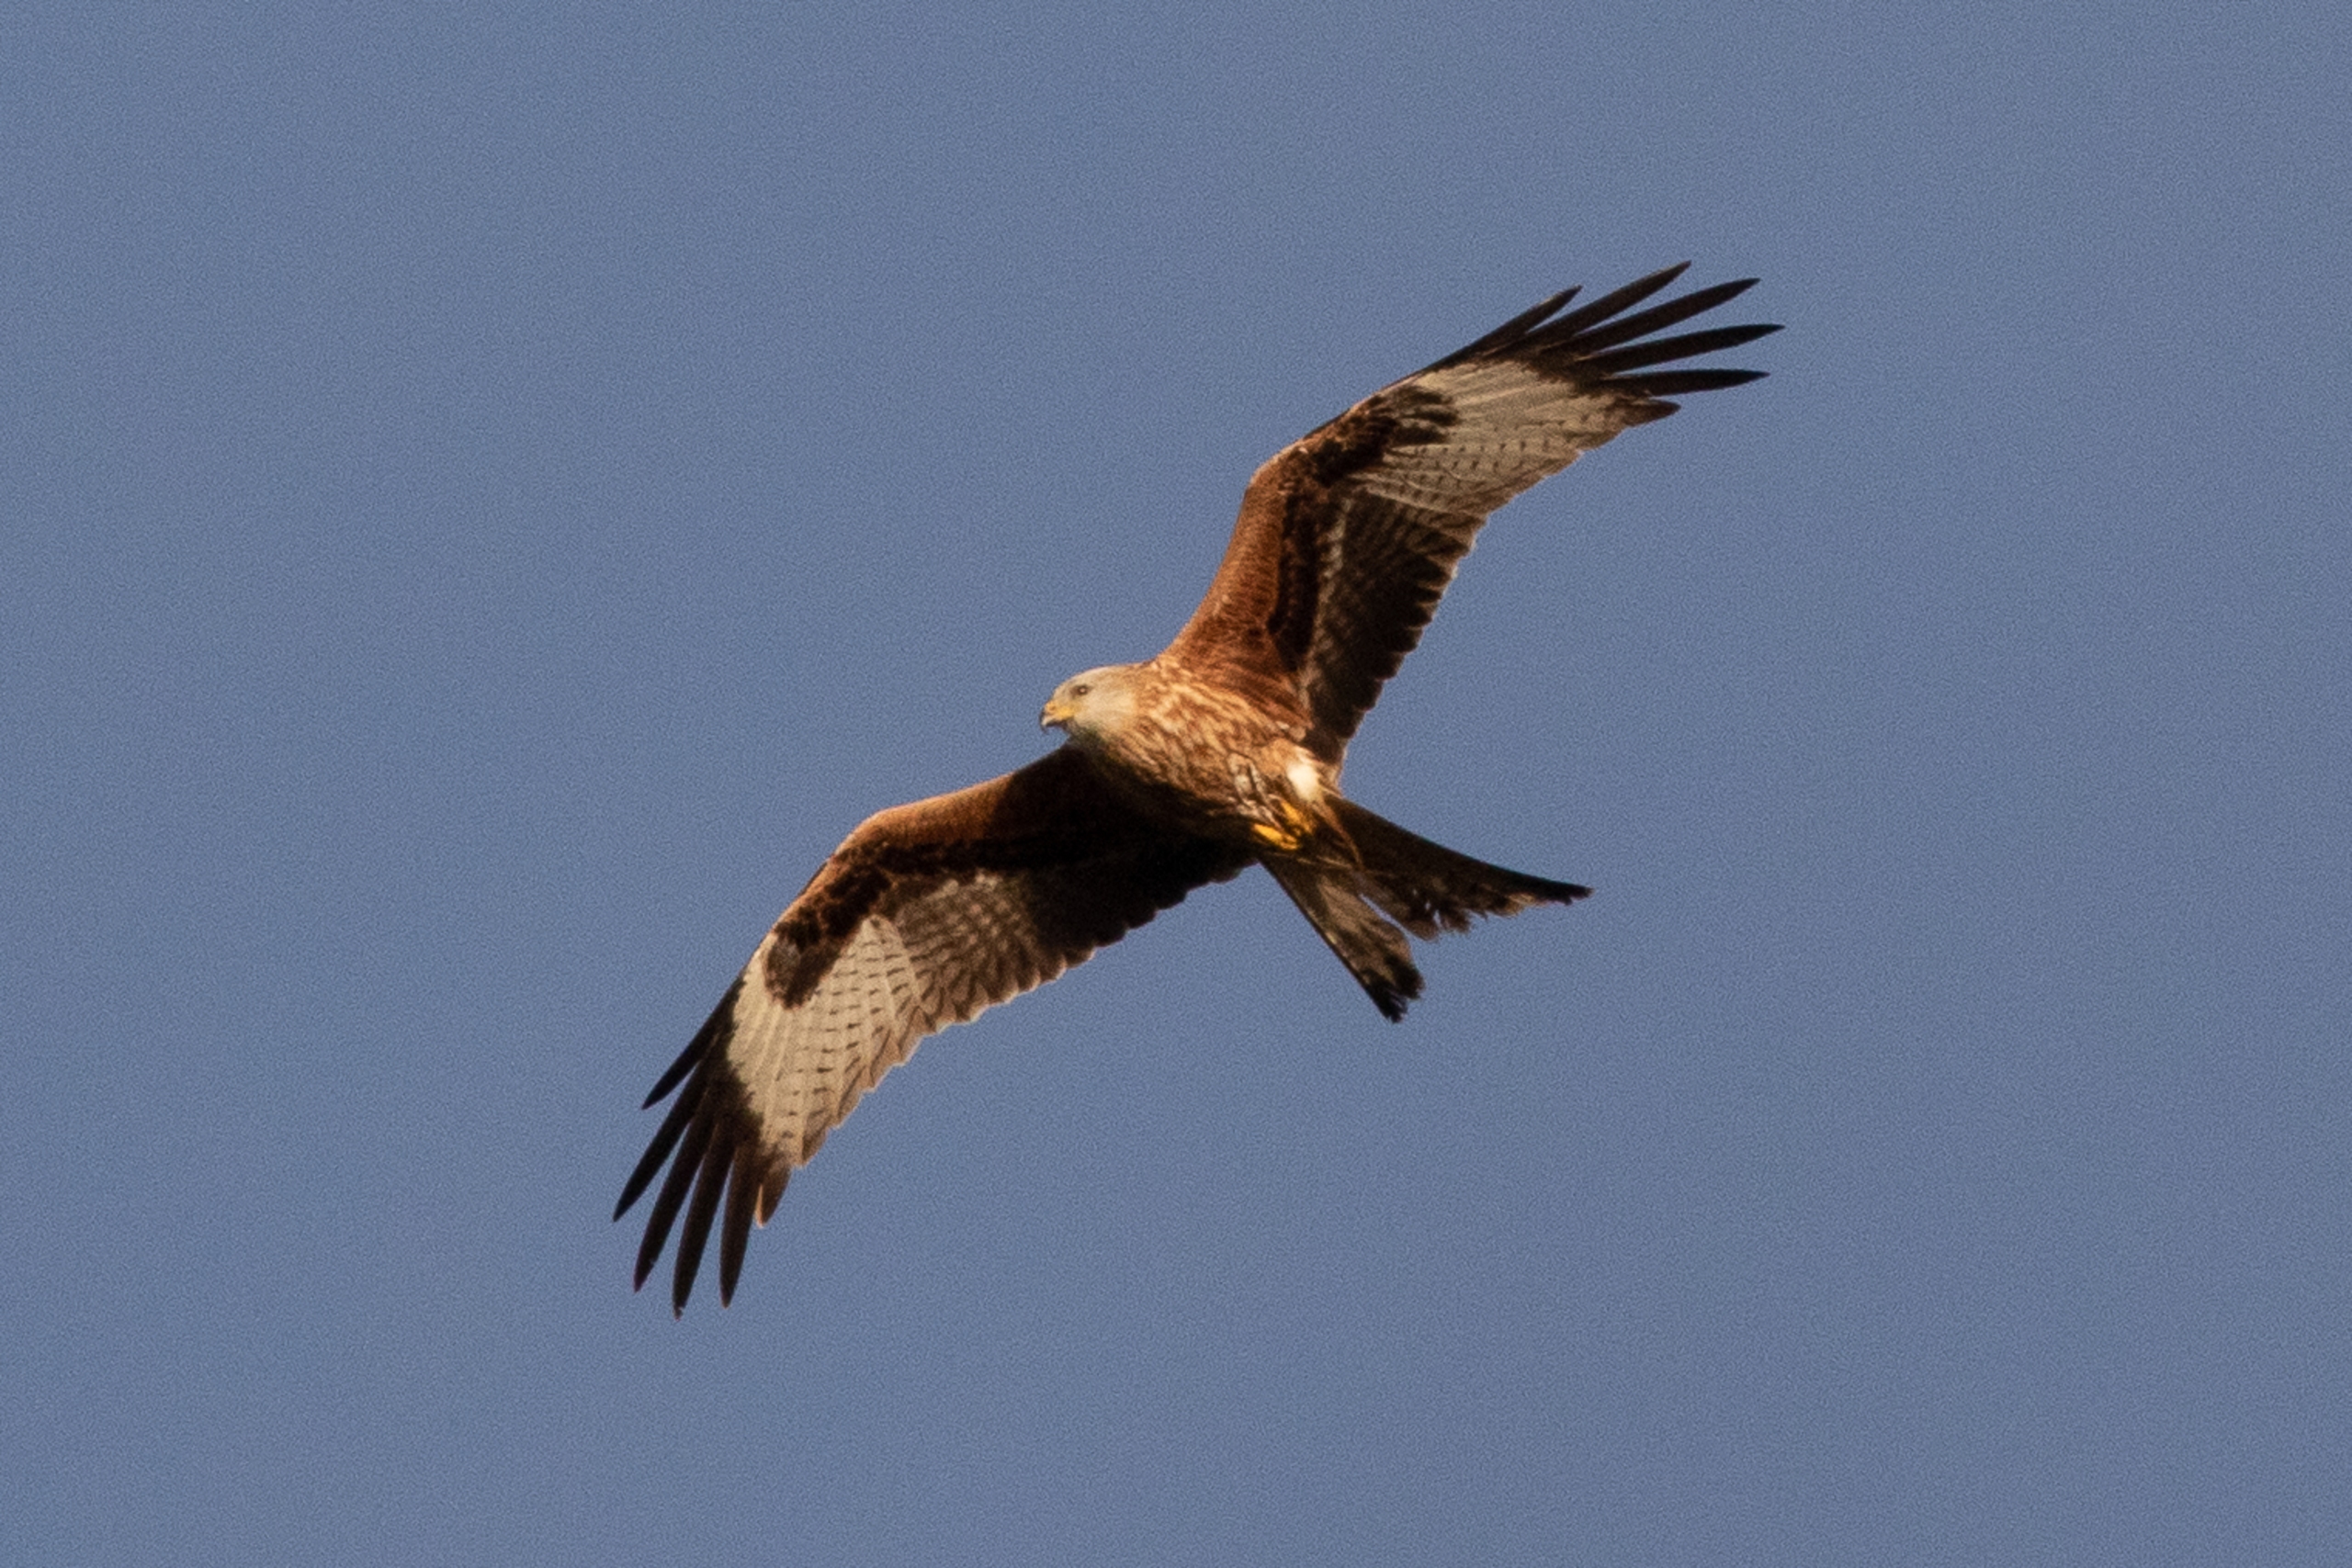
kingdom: Animalia
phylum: Chordata
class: Aves
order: Accipitriformes
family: Accipitridae
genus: Milvus
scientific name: Milvus milvus
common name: Rød glente
